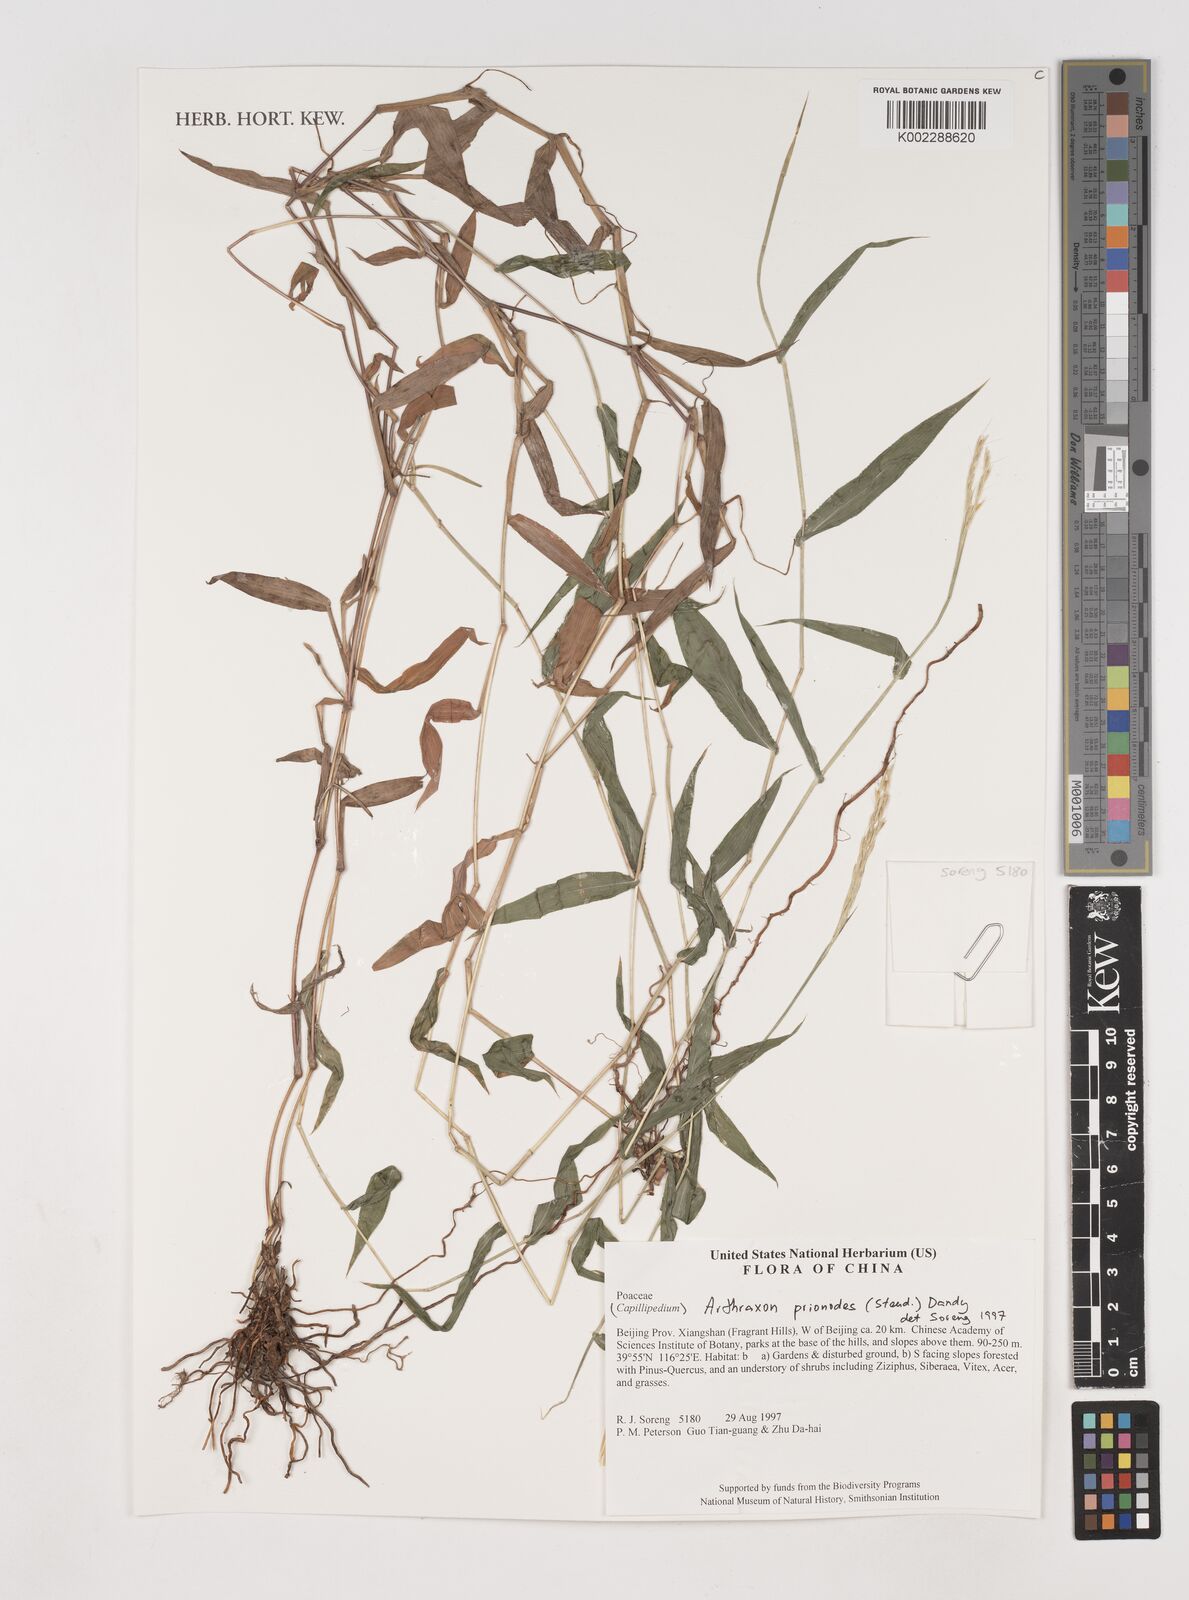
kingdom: Plantae
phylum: Tracheophyta
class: Liliopsida
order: Poales
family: Poaceae
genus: Arthraxon
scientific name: Arthraxon prionodes
